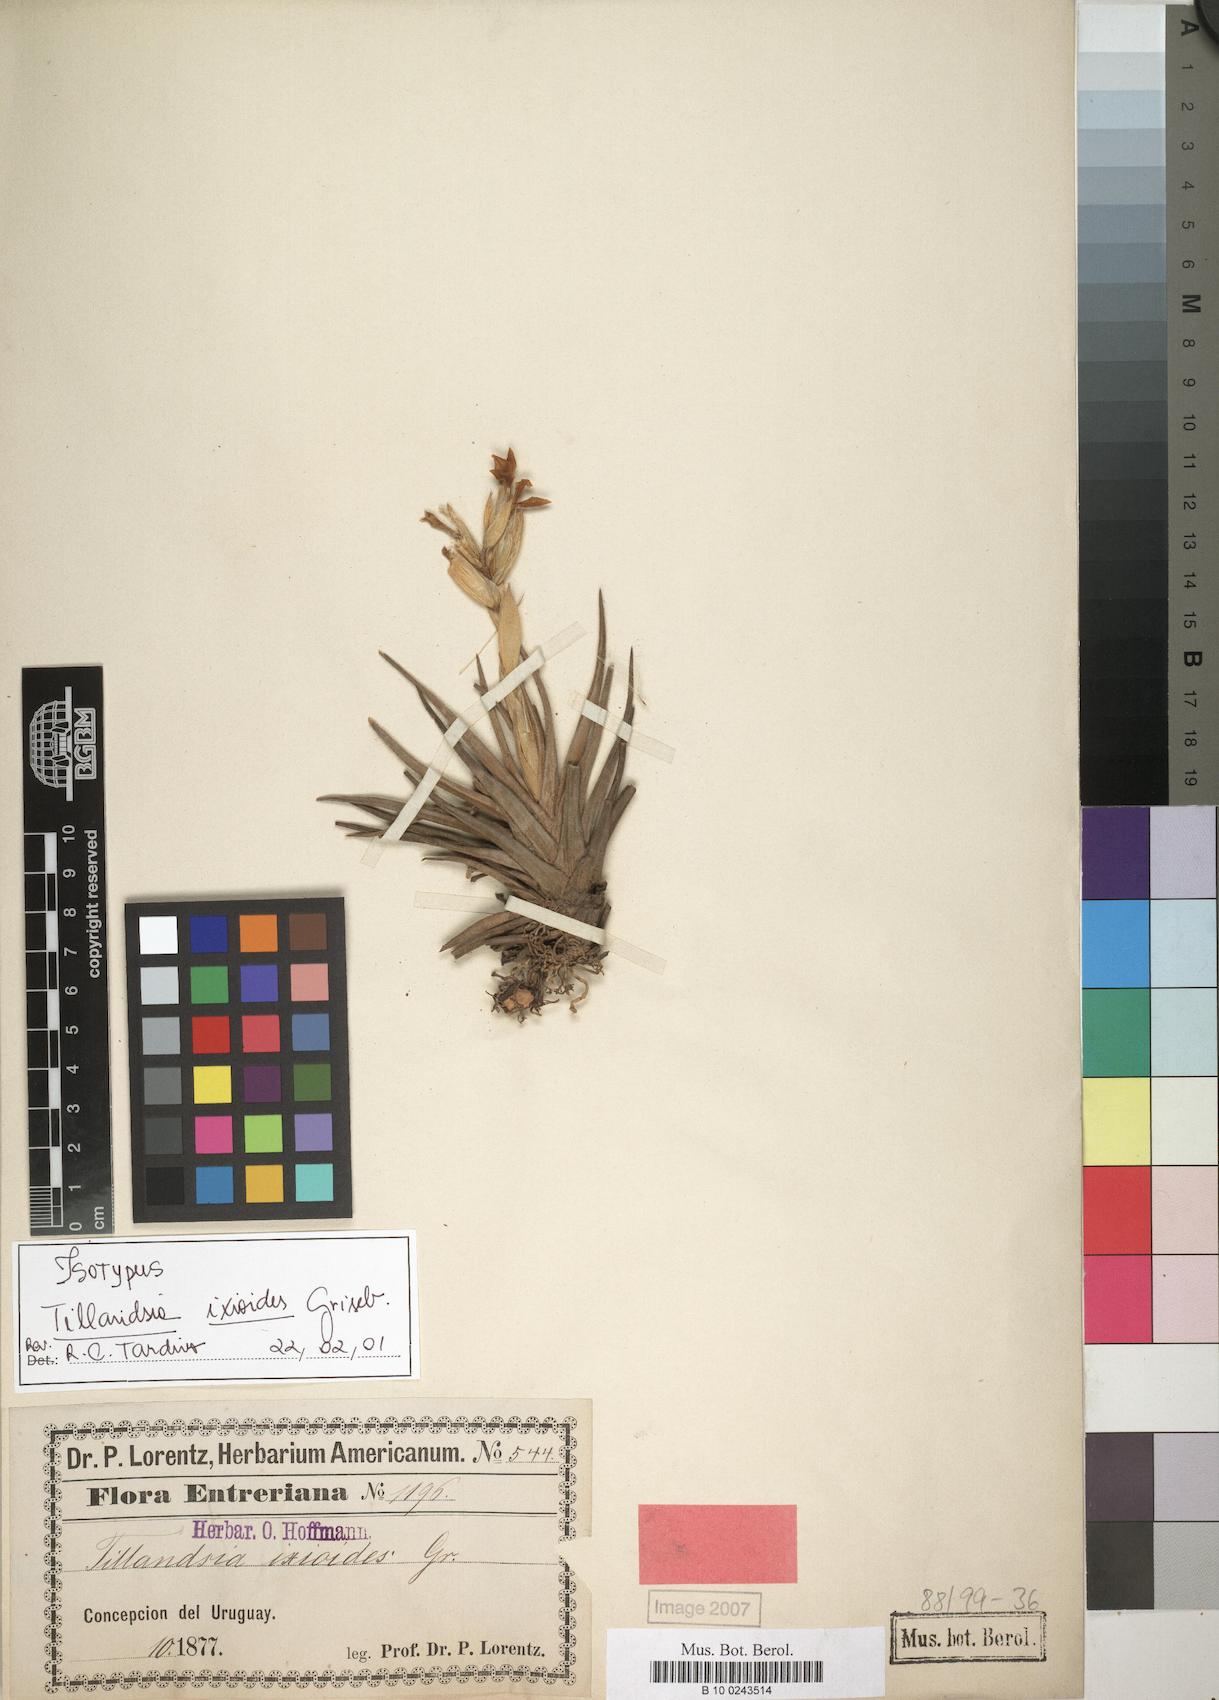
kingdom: Plantae
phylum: Tracheophyta
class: Liliopsida
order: Poales
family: Bromeliaceae
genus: Tillandsia
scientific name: Tillandsia ixioides
